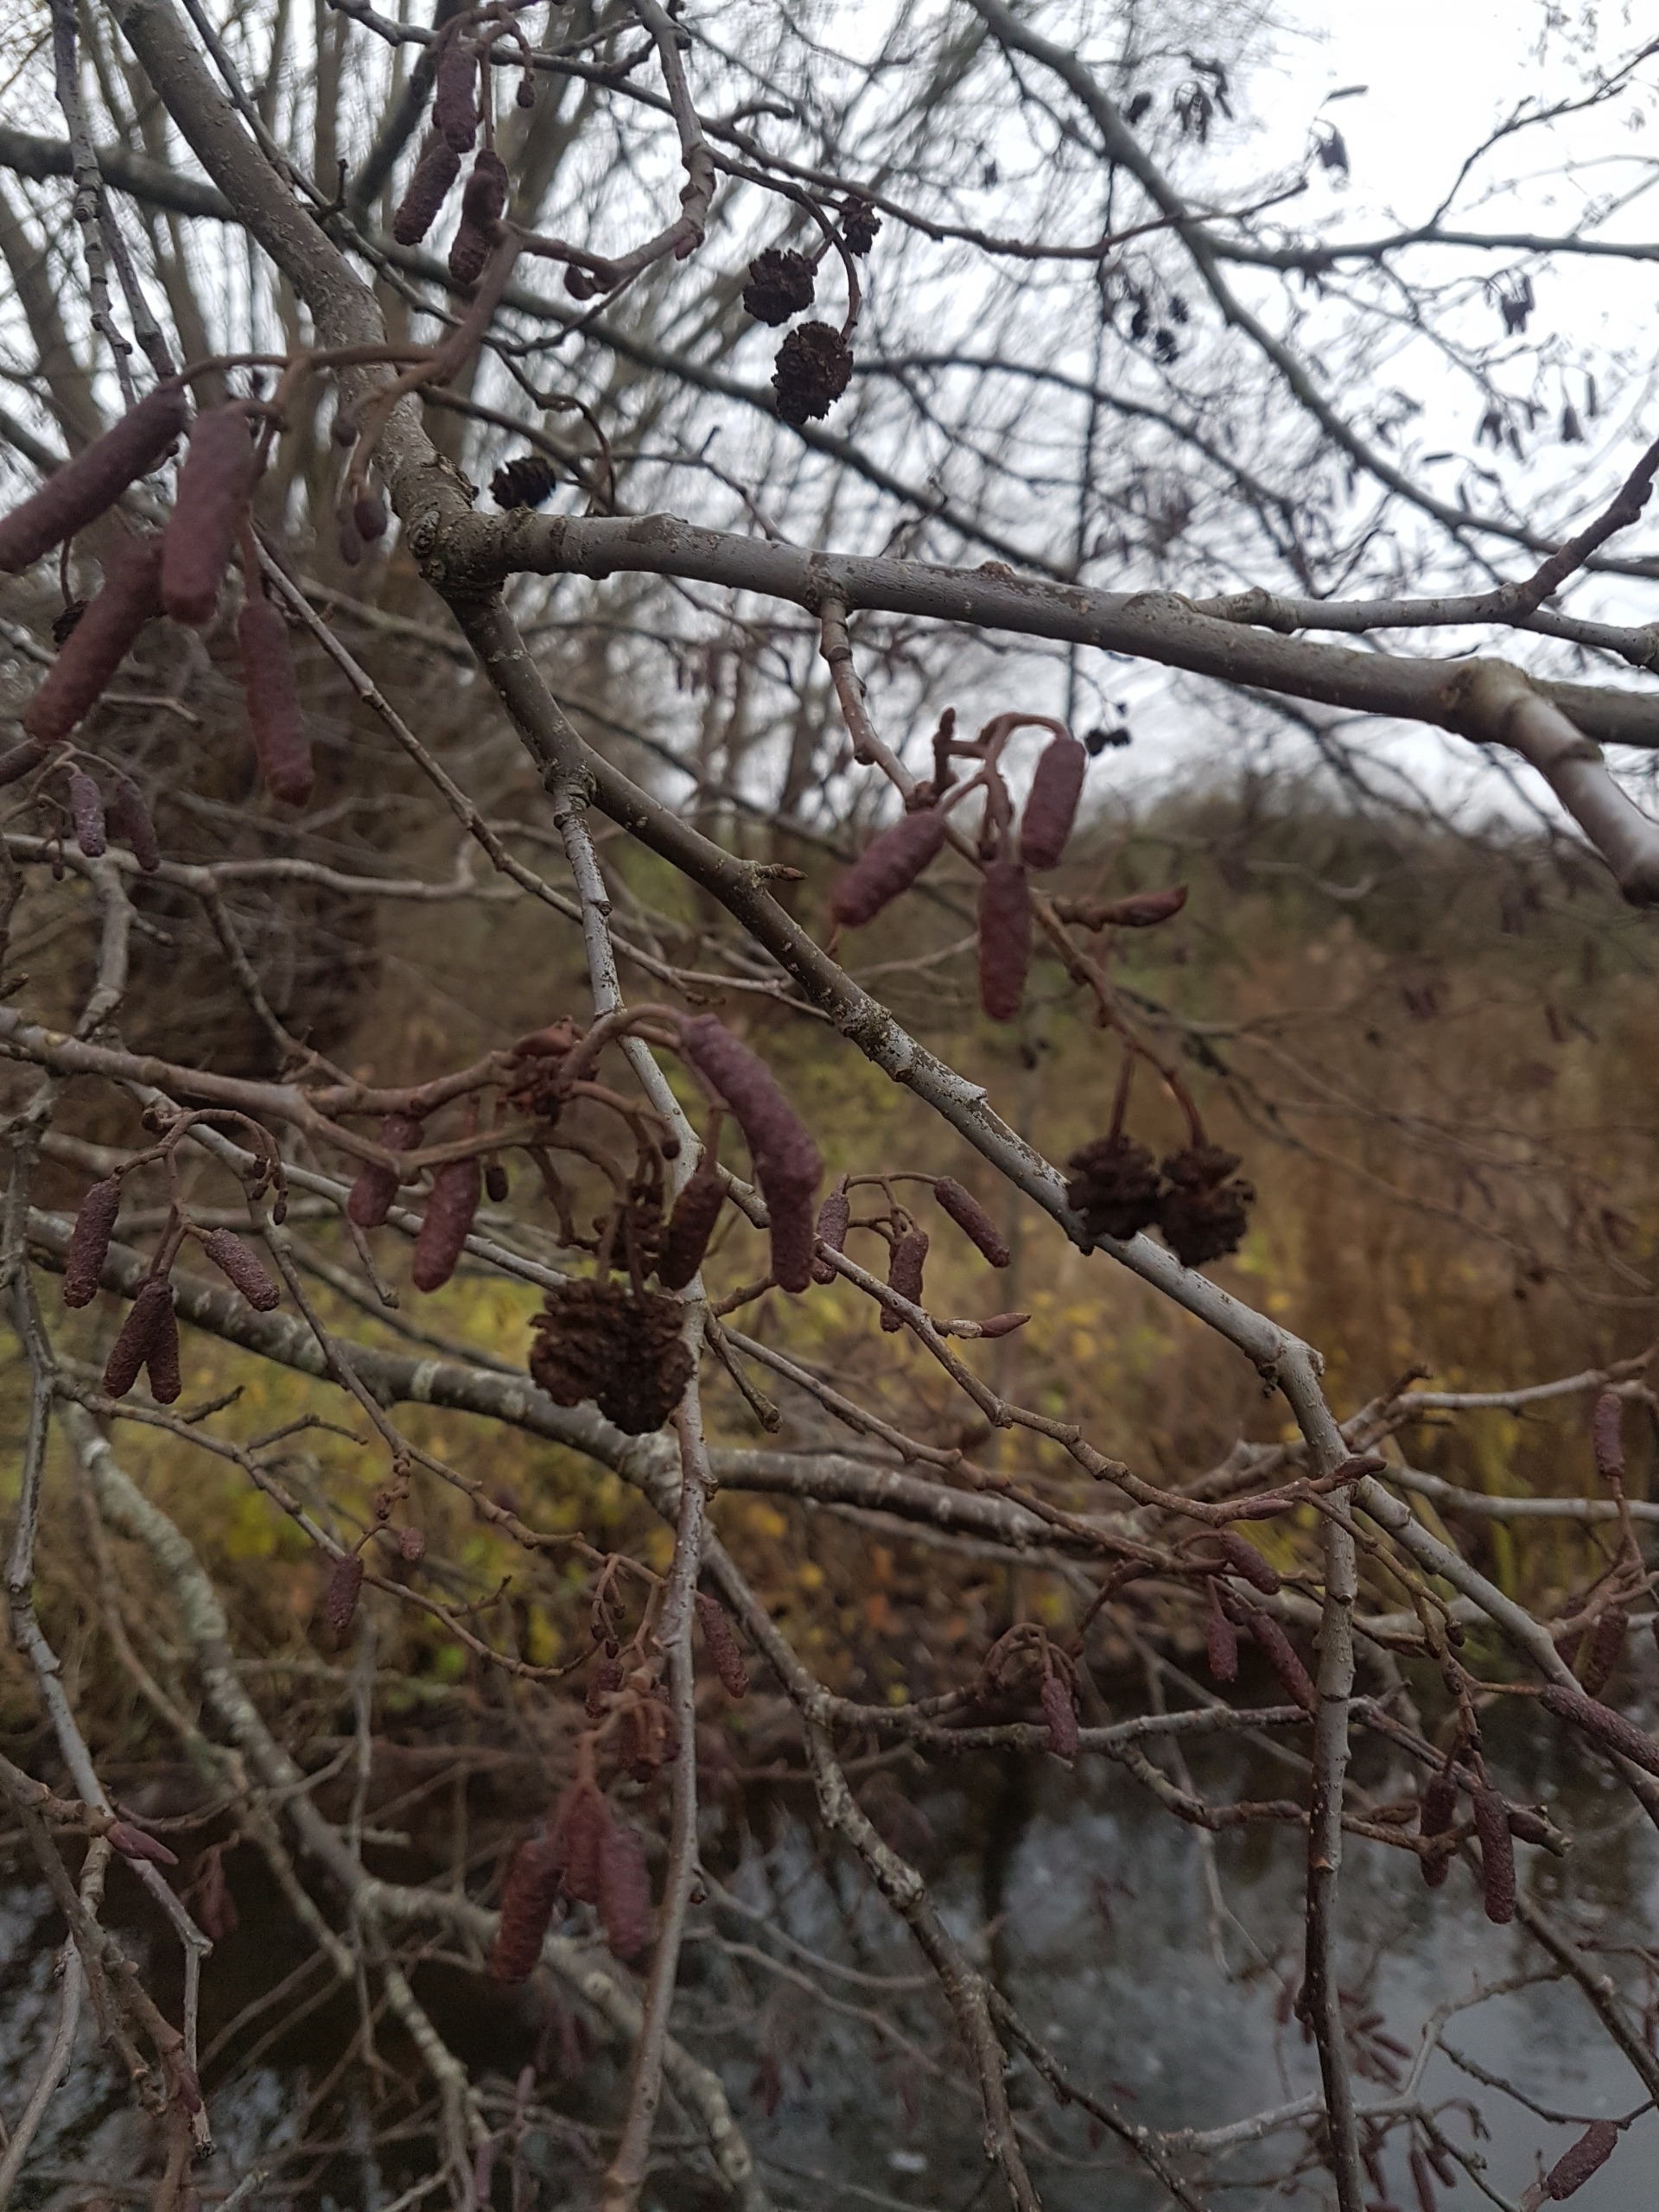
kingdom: Plantae
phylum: Tracheophyta
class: Magnoliopsida
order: Fagales
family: Betulaceae
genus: Alnus
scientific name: Alnus glutinosa
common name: Rød-el
